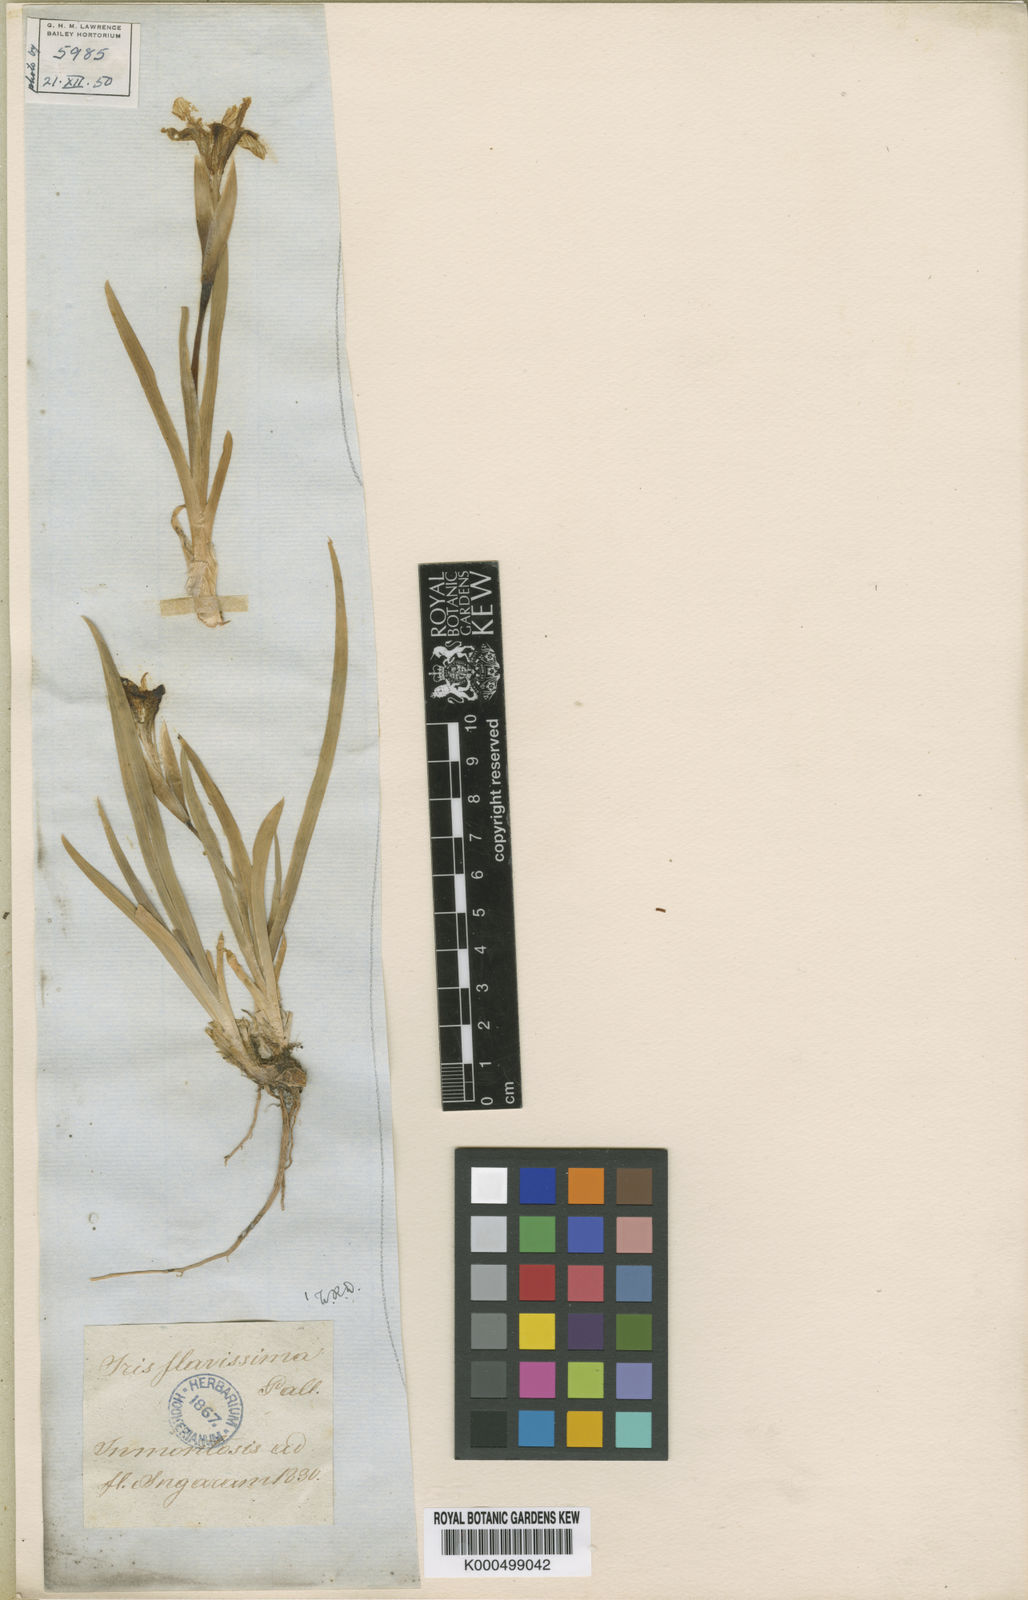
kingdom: Plantae
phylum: Tracheophyta
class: Liliopsida
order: Asparagales
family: Iridaceae
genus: Iris
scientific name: Iris humilis
